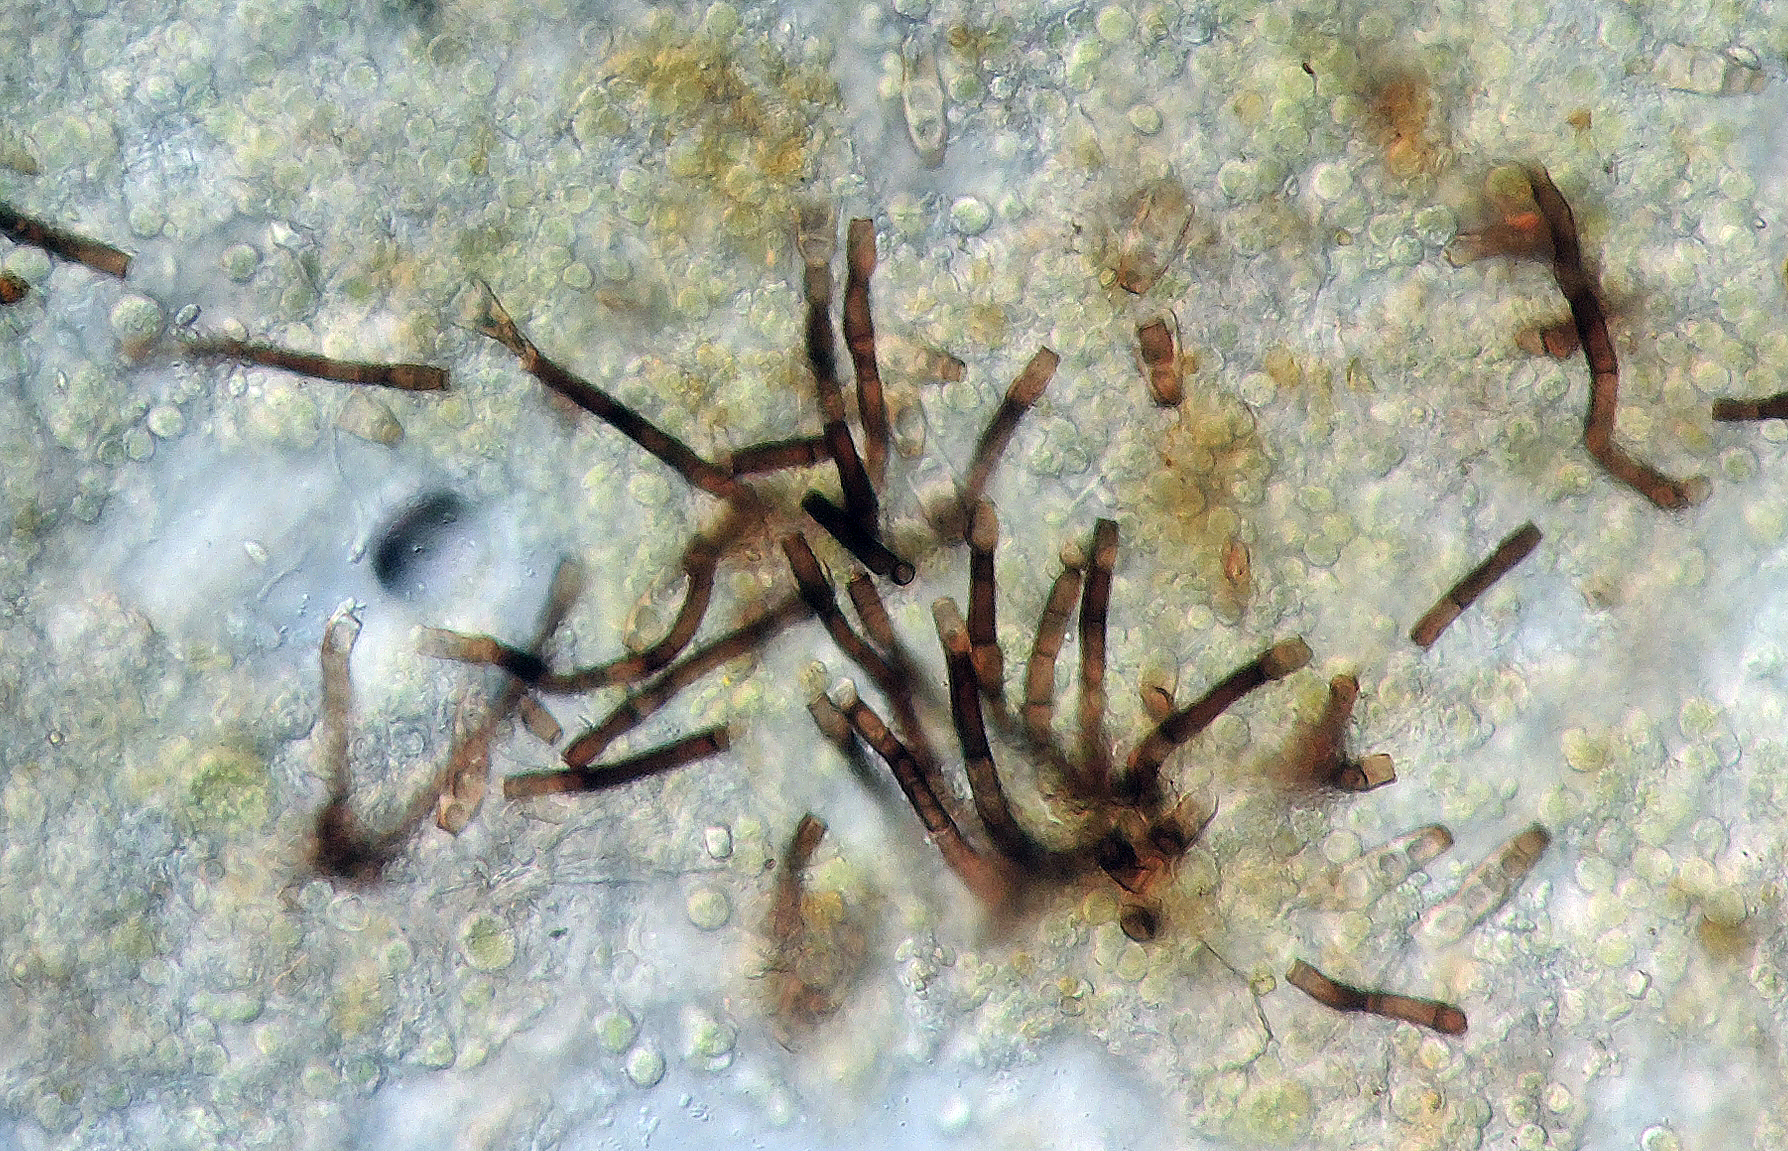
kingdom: Fungi
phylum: Ascomycota
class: Sordariomycetes
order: Chaetosphaeriales
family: Chaetosphaeriaceae
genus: Ellisembia
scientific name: Ellisembia leptospora
